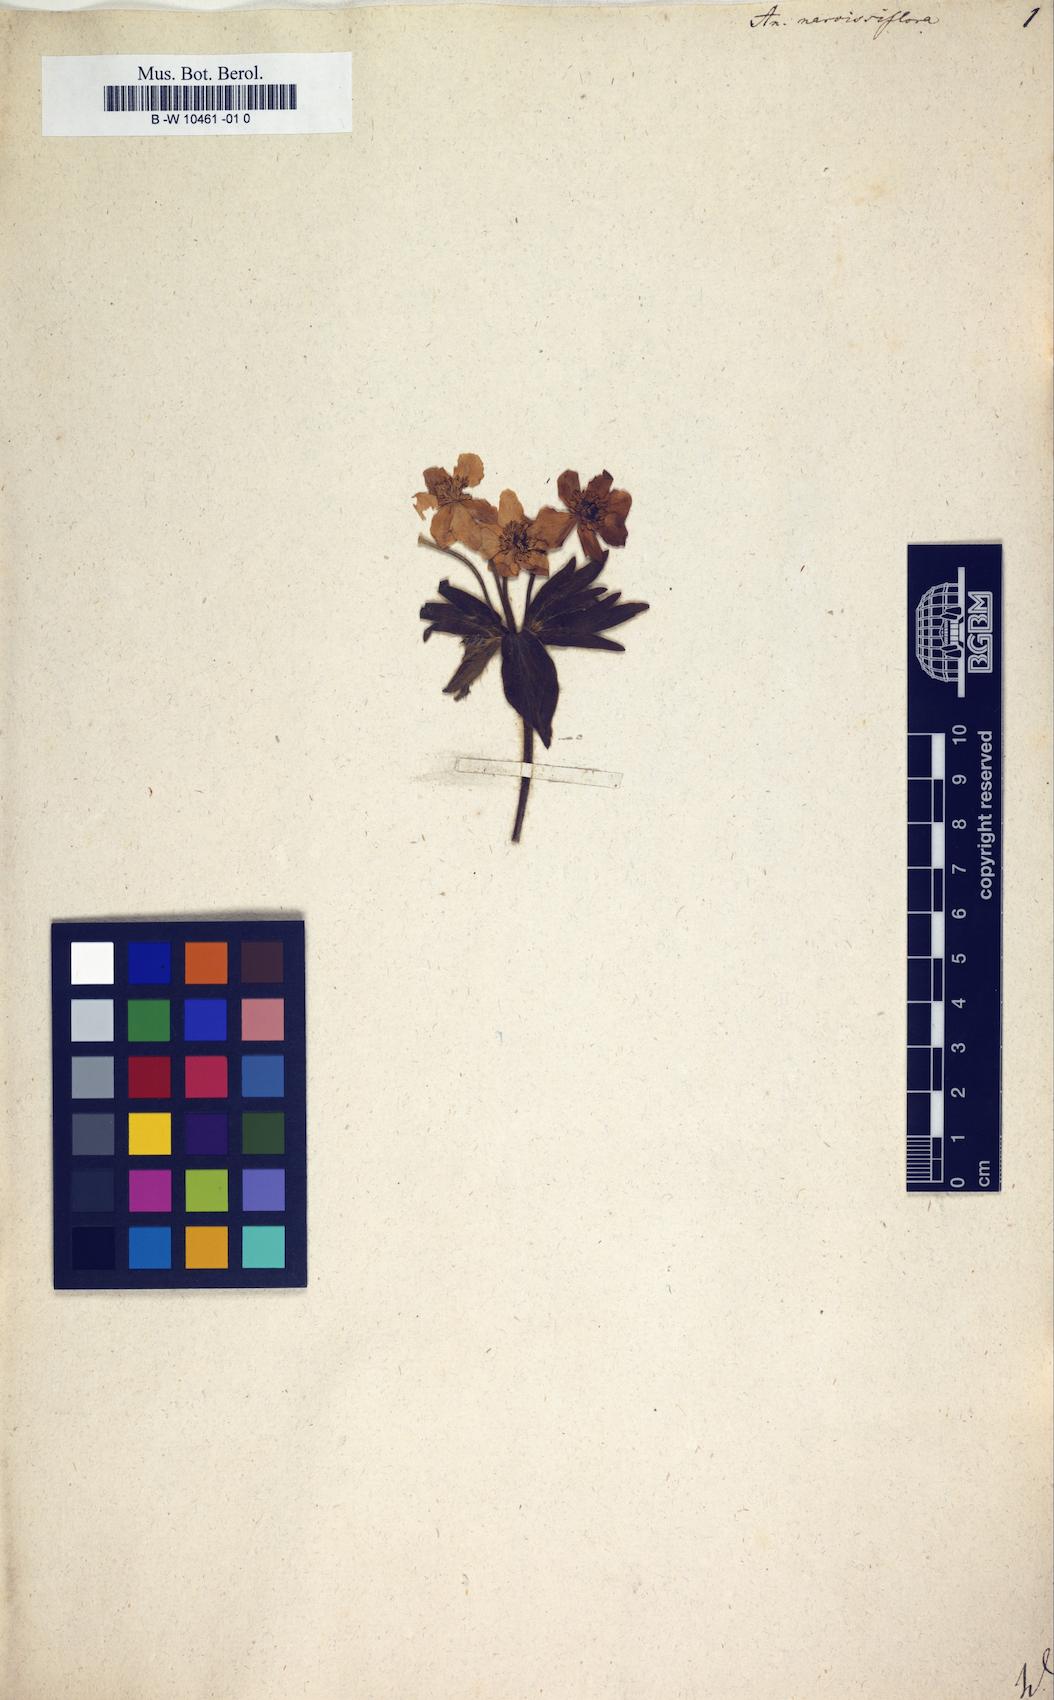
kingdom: Plantae
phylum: Tracheophyta
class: Magnoliopsida
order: Ranunculales
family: Ranunculaceae
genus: Anemonastrum
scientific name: Anemonastrum narcissiflorum
